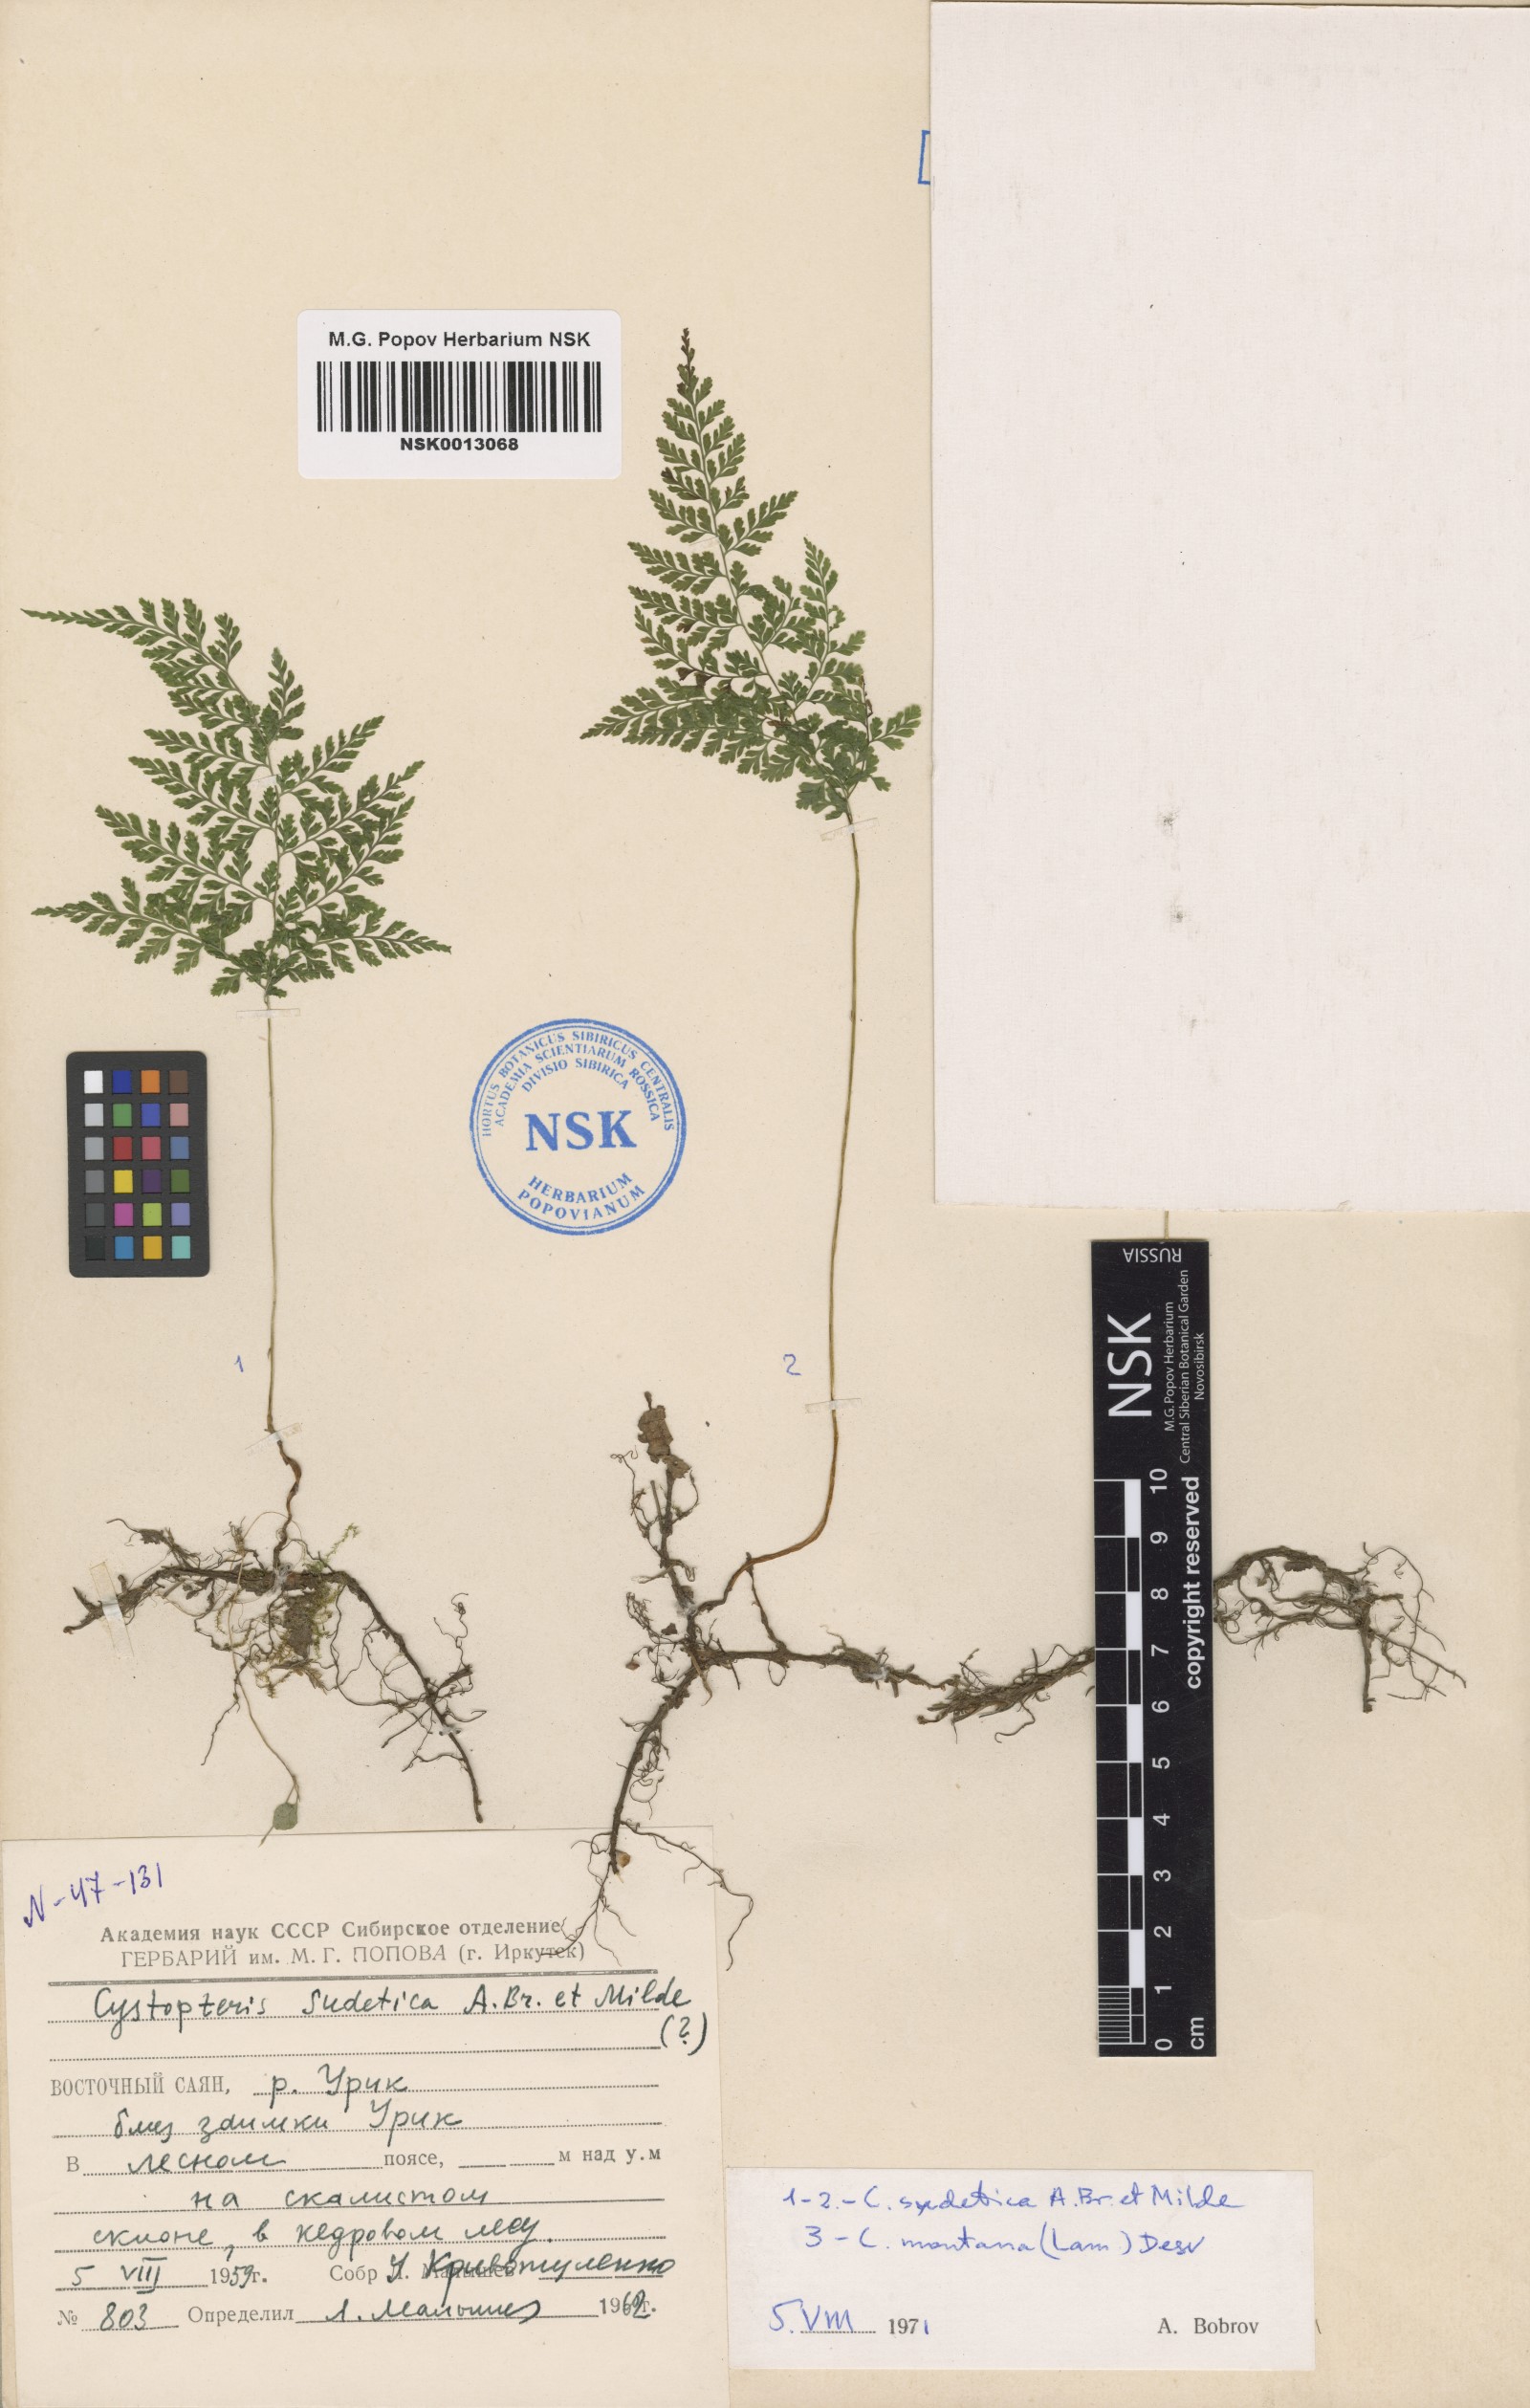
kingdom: Plantae
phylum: Tracheophyta
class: Polypodiopsida
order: Polypodiales
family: Cystopteridaceae
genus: Cystopteris
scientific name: Cystopteris sudetica
